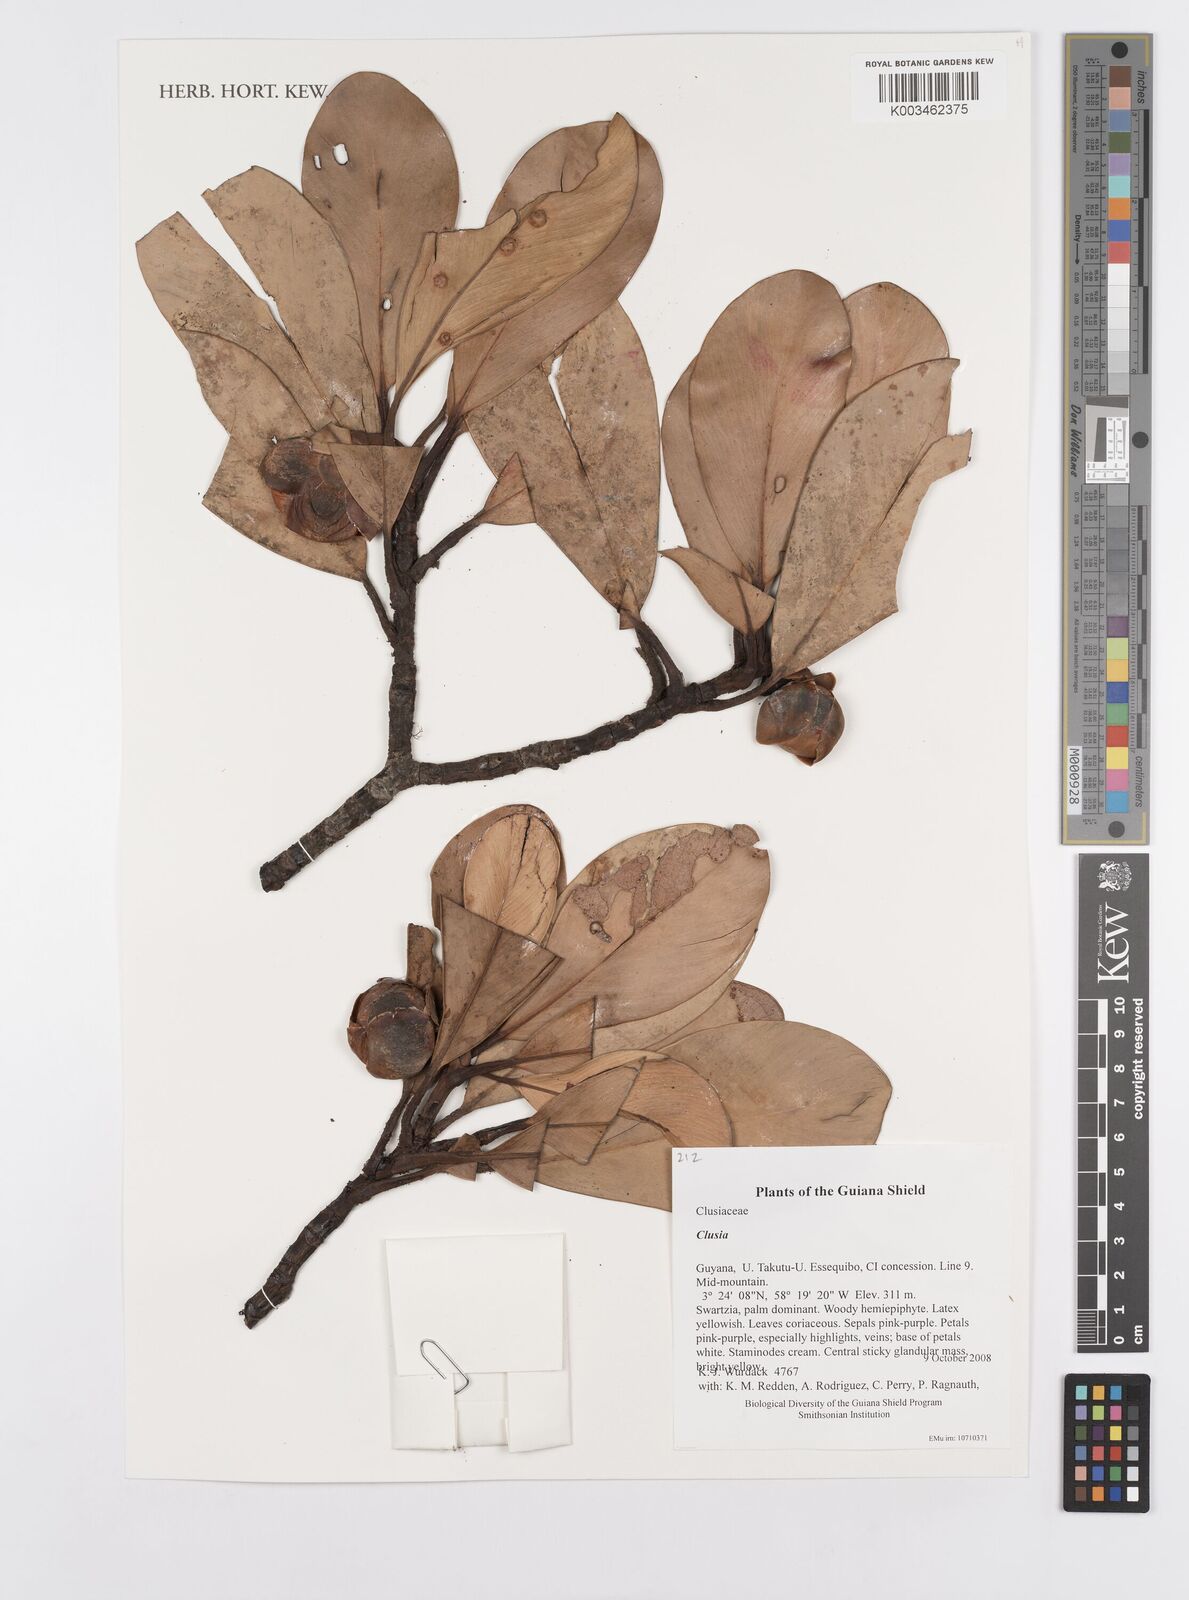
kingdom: Plantae
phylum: Tracheophyta
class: Magnoliopsida
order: Malpighiales
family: Clusiaceae
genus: Clusia
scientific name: Clusia
